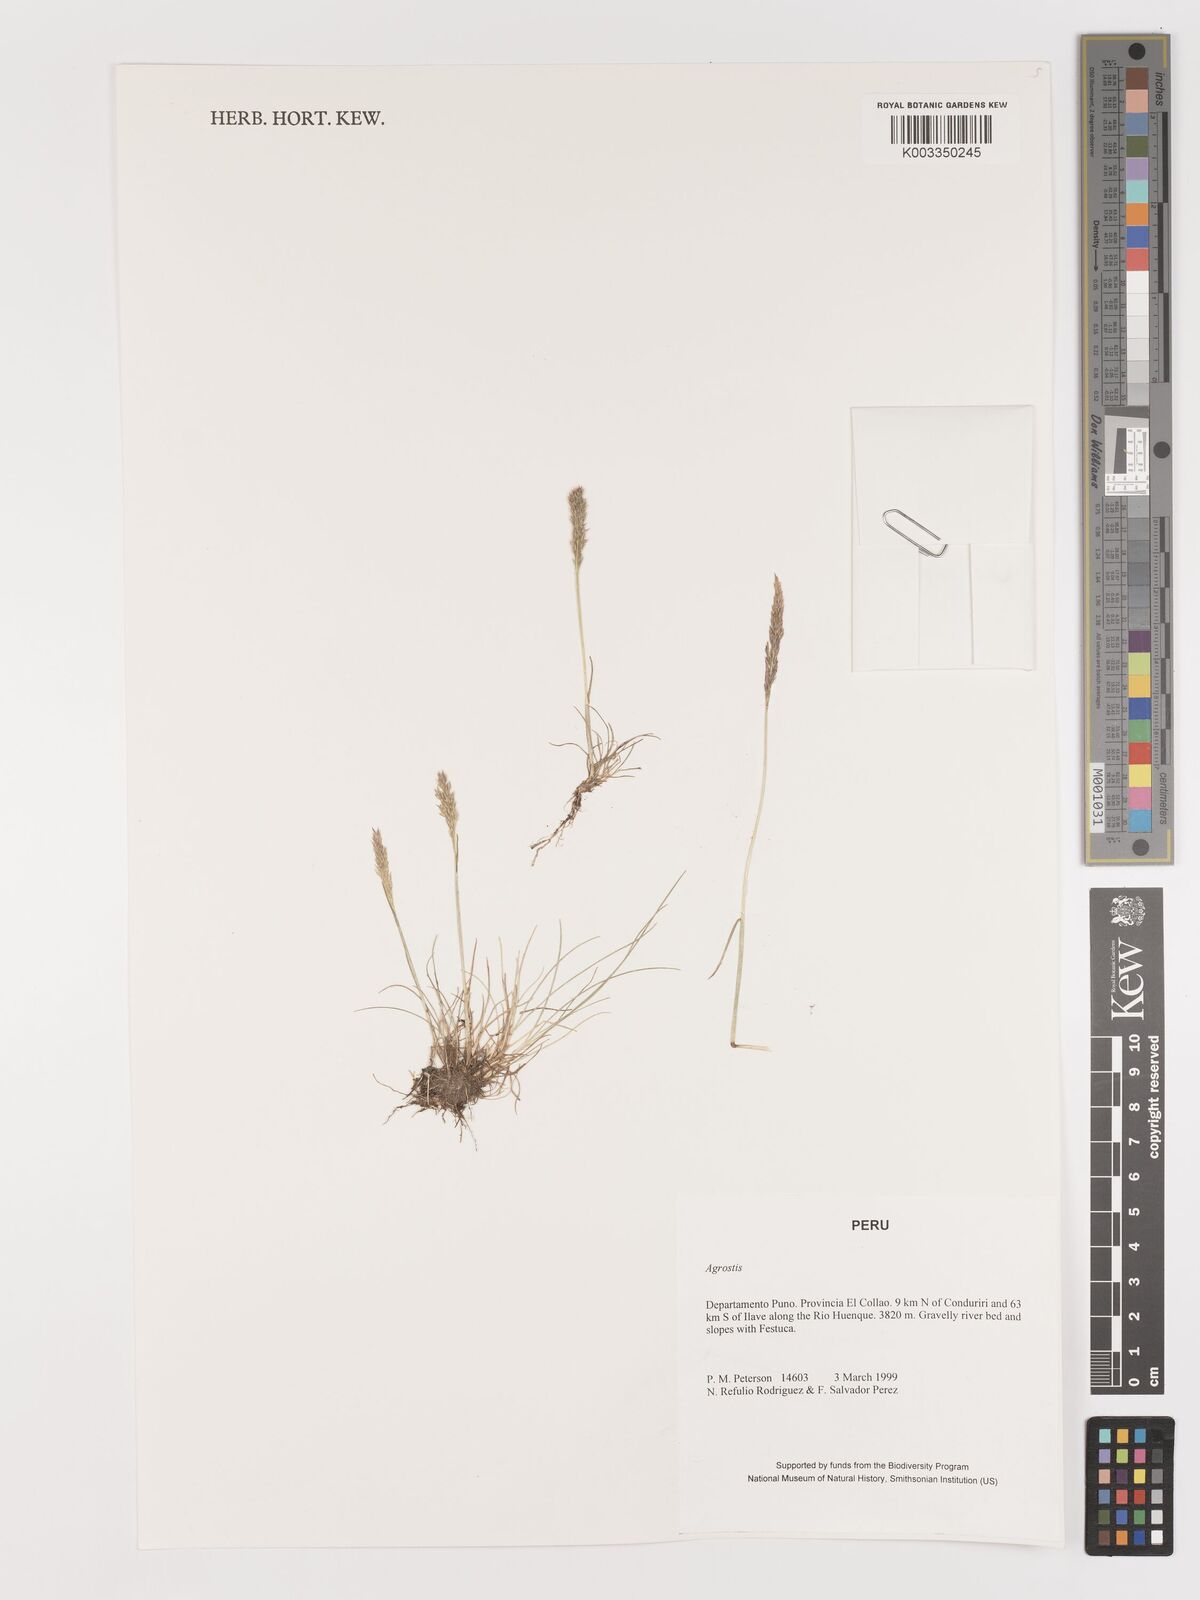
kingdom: Plantae
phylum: Tracheophyta
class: Liliopsida
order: Poales
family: Poaceae
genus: Agrostis
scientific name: Agrostis
